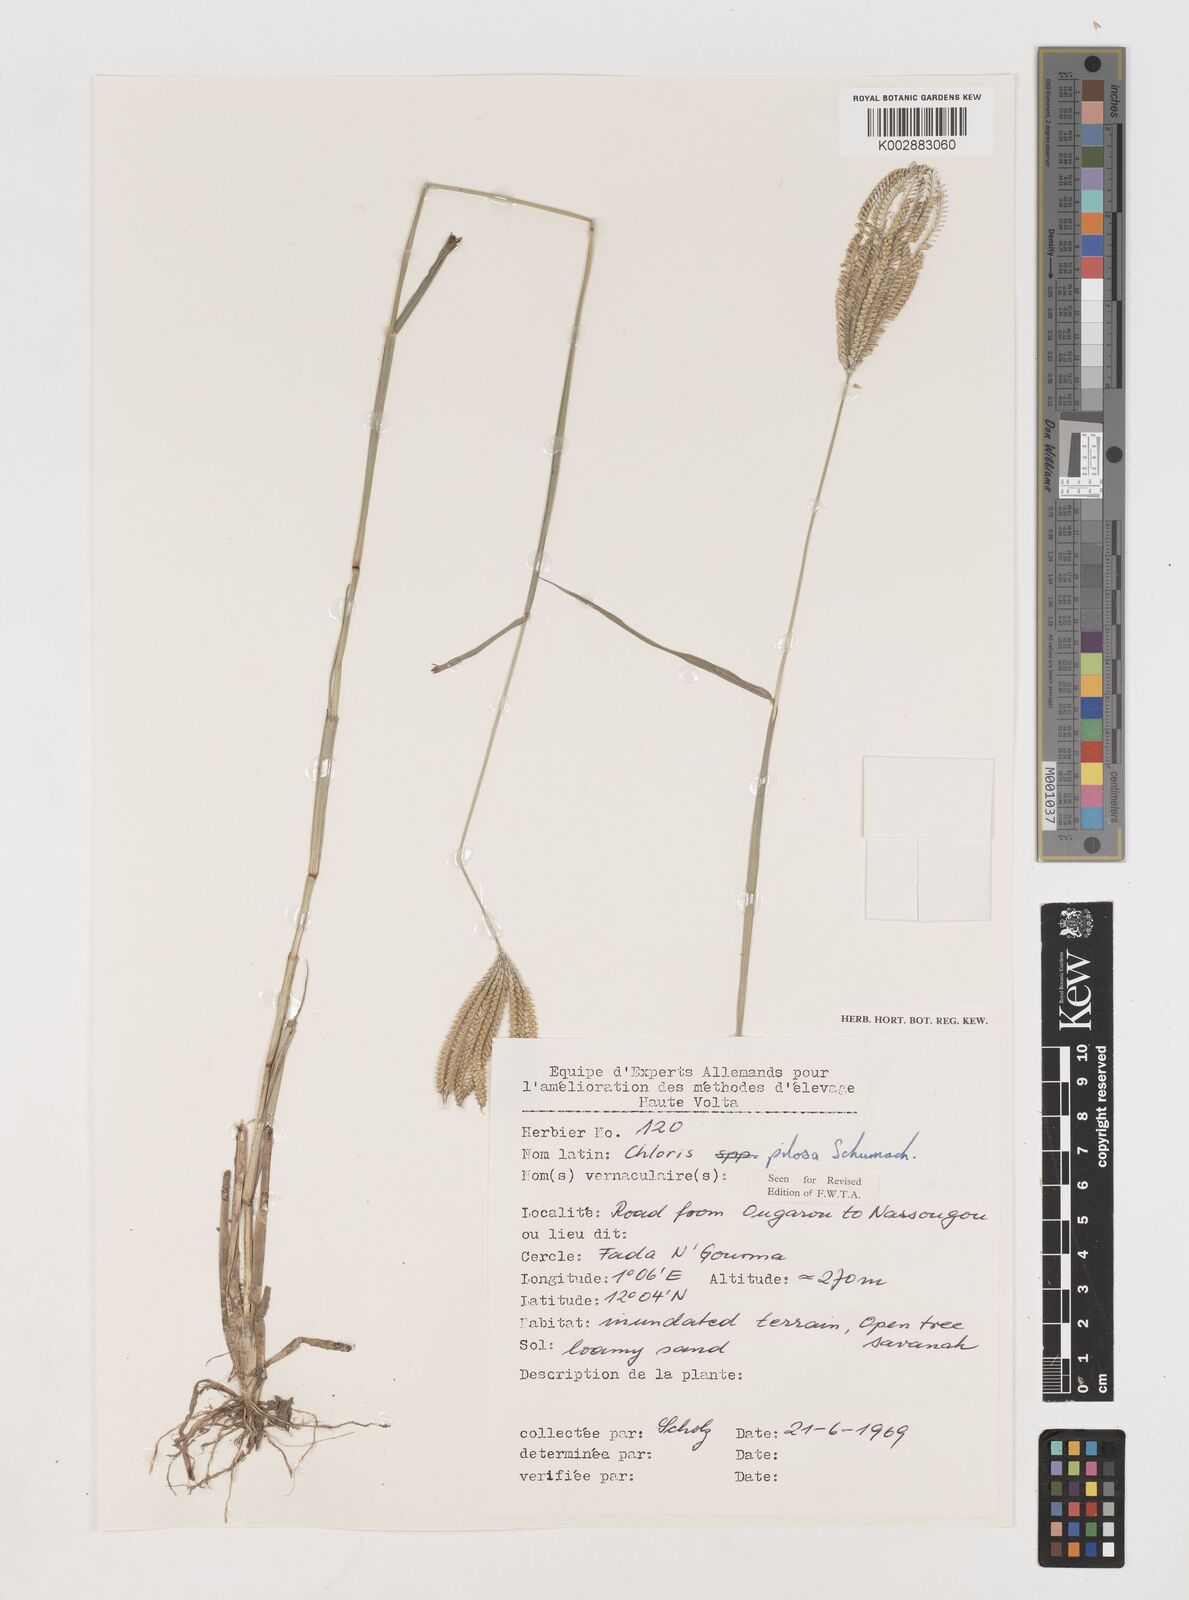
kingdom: Plantae
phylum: Tracheophyta
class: Liliopsida
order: Poales
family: Poaceae
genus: Chloris
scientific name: Chloris pilosa
